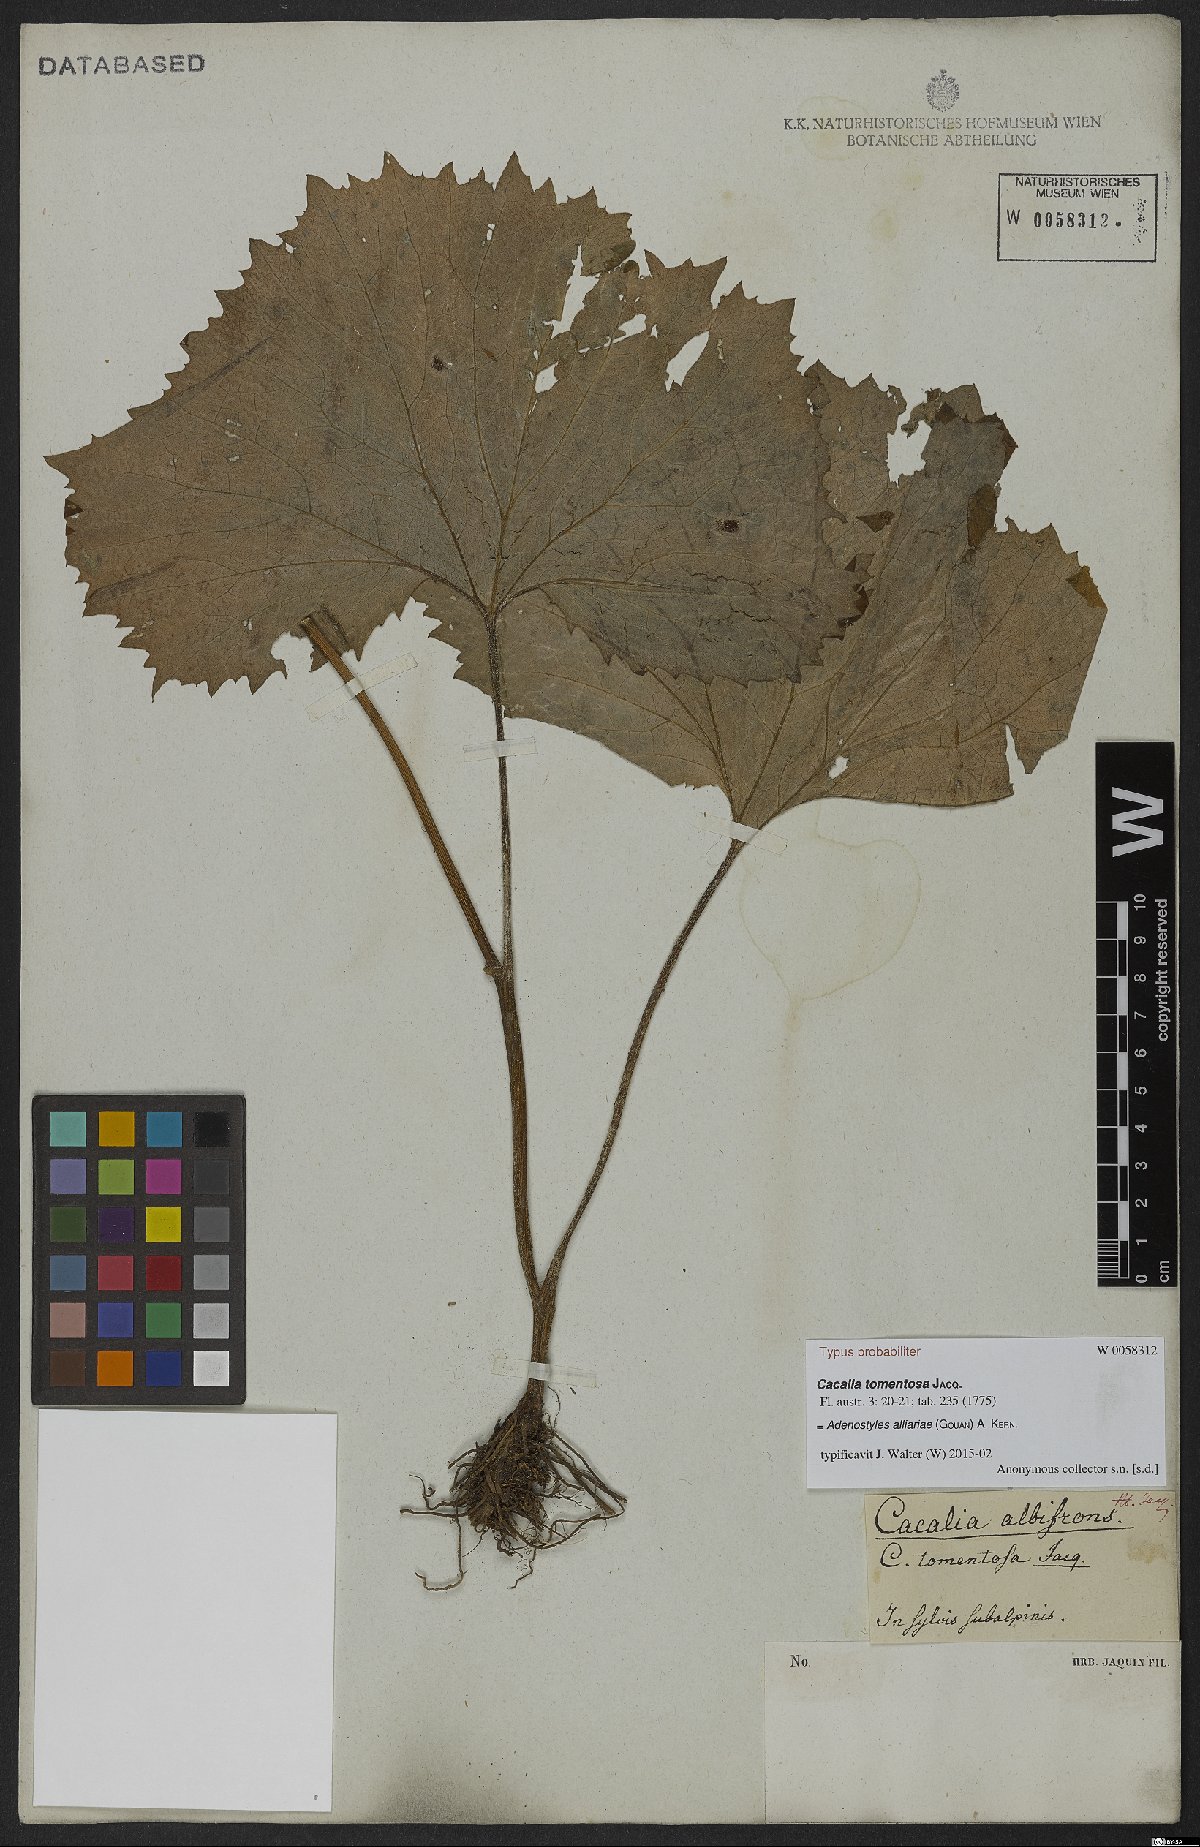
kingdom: Plantae
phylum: Tracheophyta
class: Magnoliopsida
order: Asterales
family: Asteraceae
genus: Adenostyles
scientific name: Adenostyles alliariae
